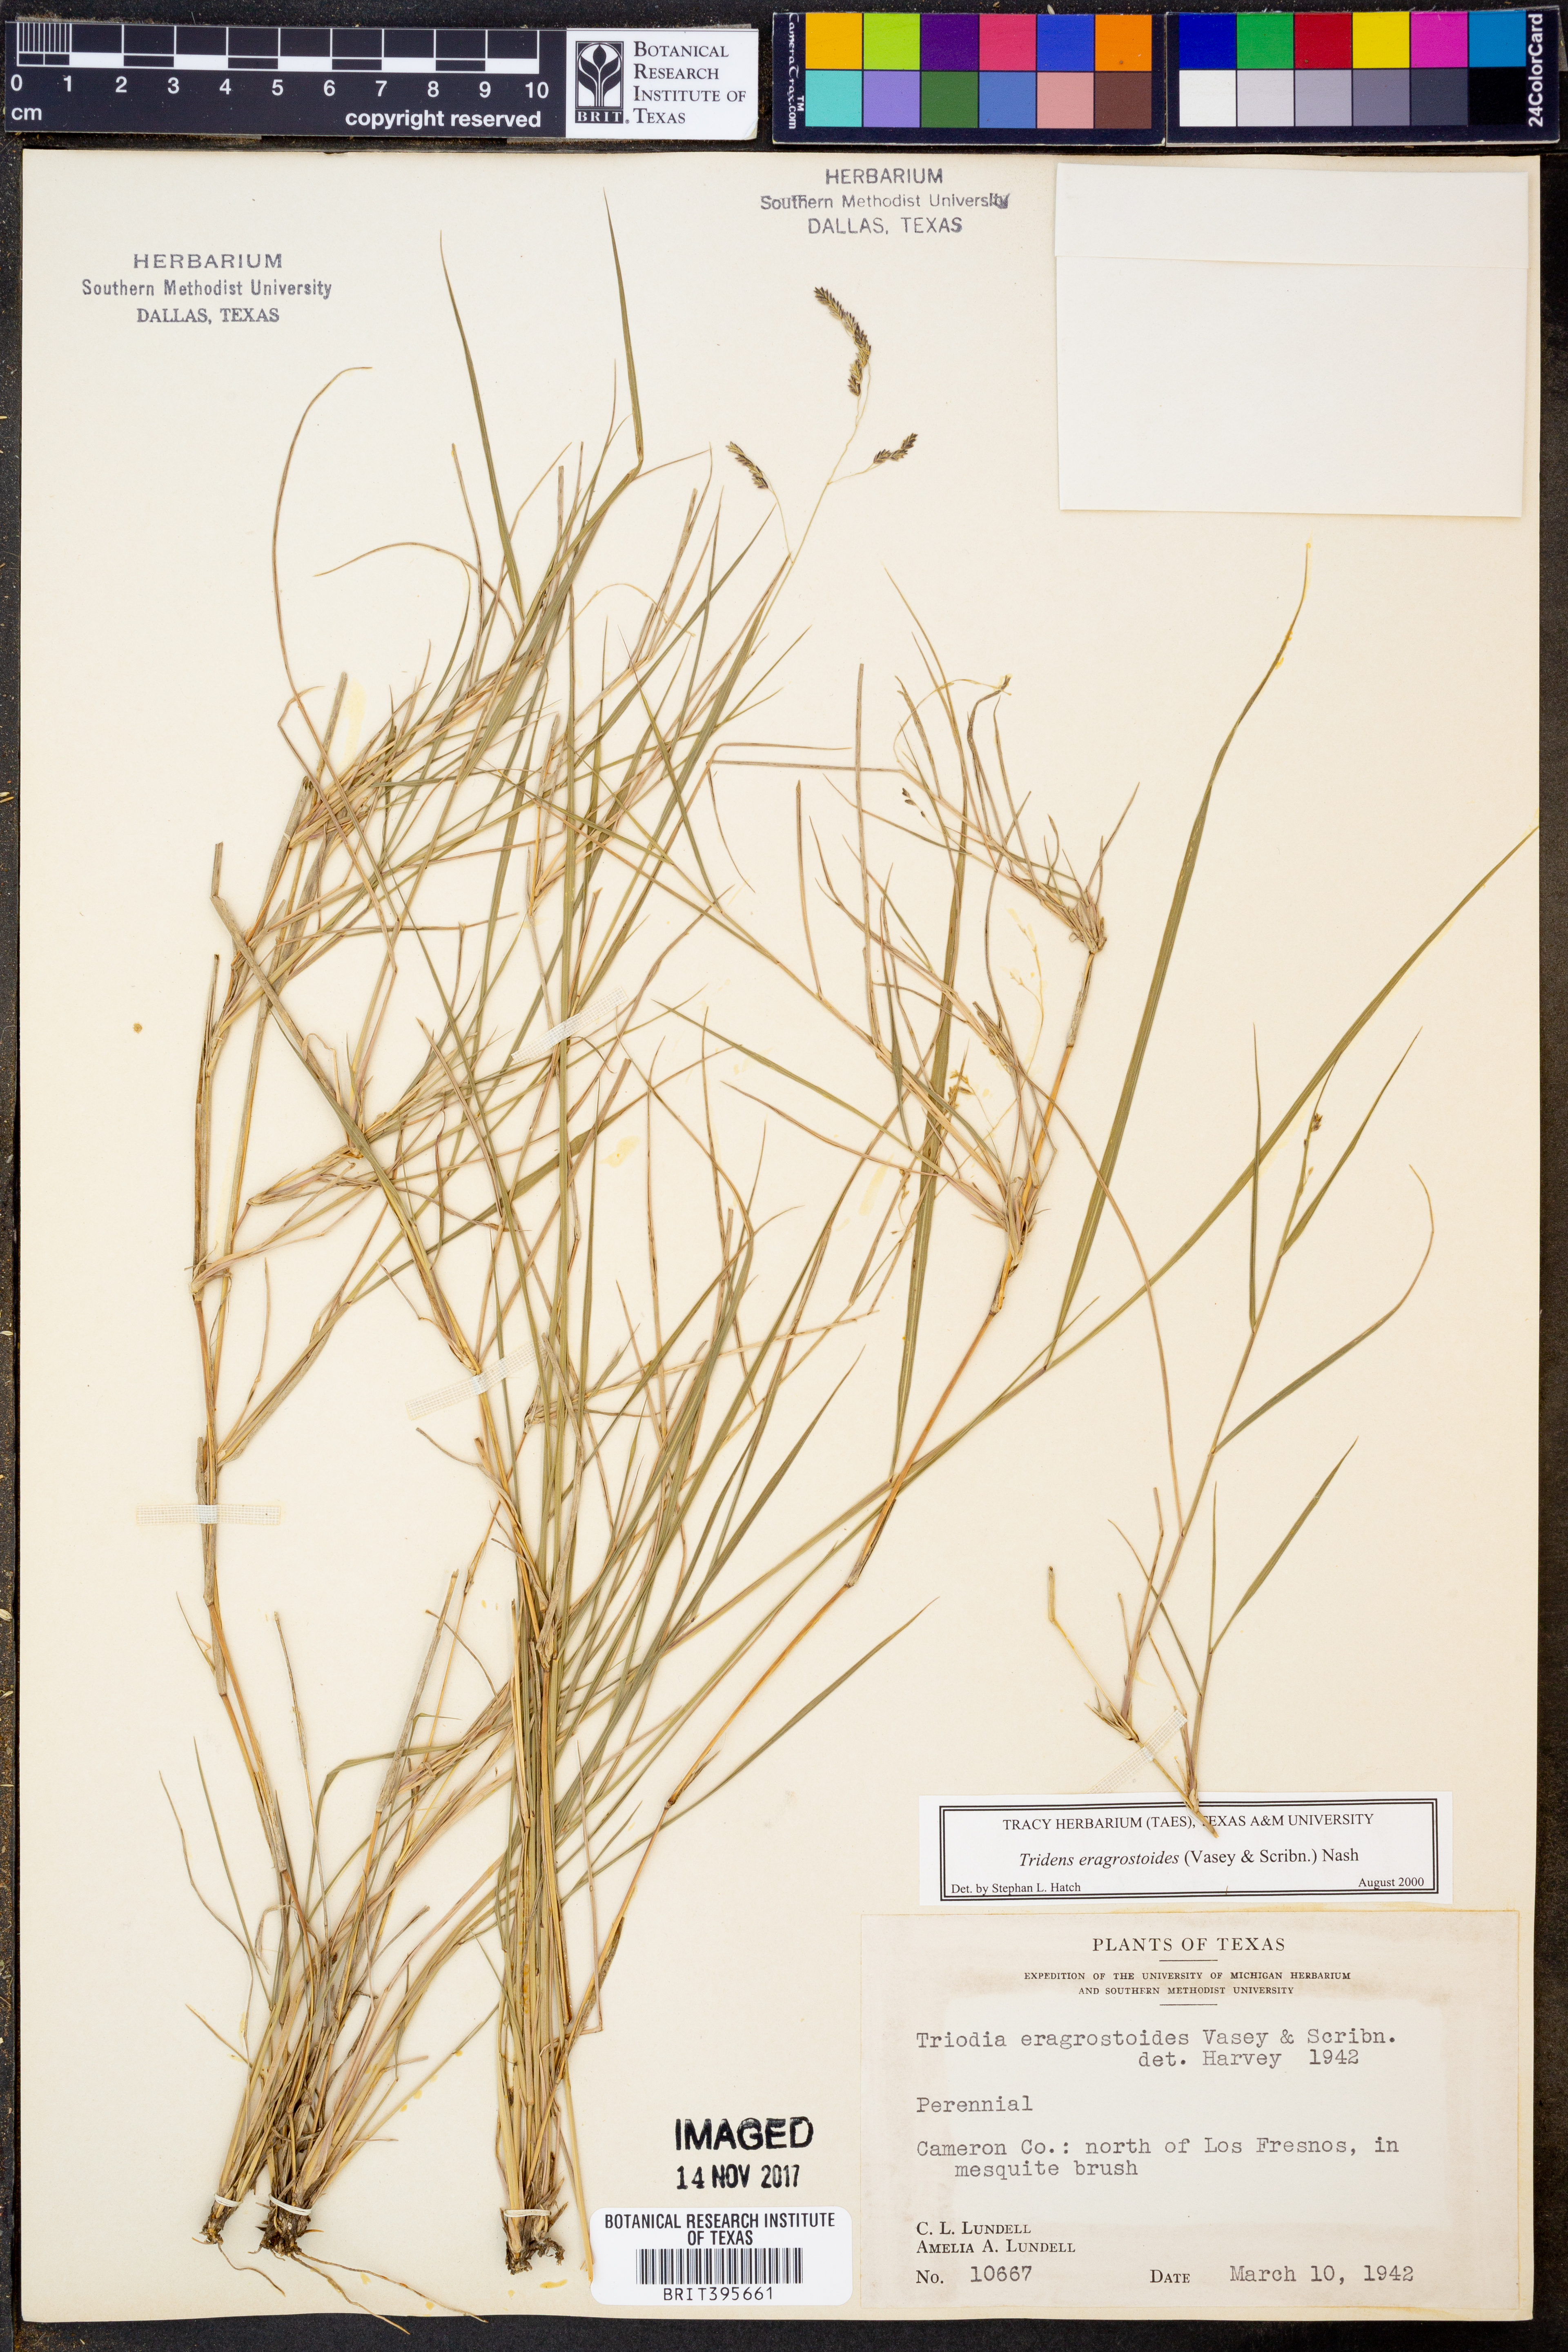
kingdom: Plantae
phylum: Tracheophyta
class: Liliopsida
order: Poales
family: Poaceae
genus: Triplasiella
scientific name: Triplasiella eragrostoides
